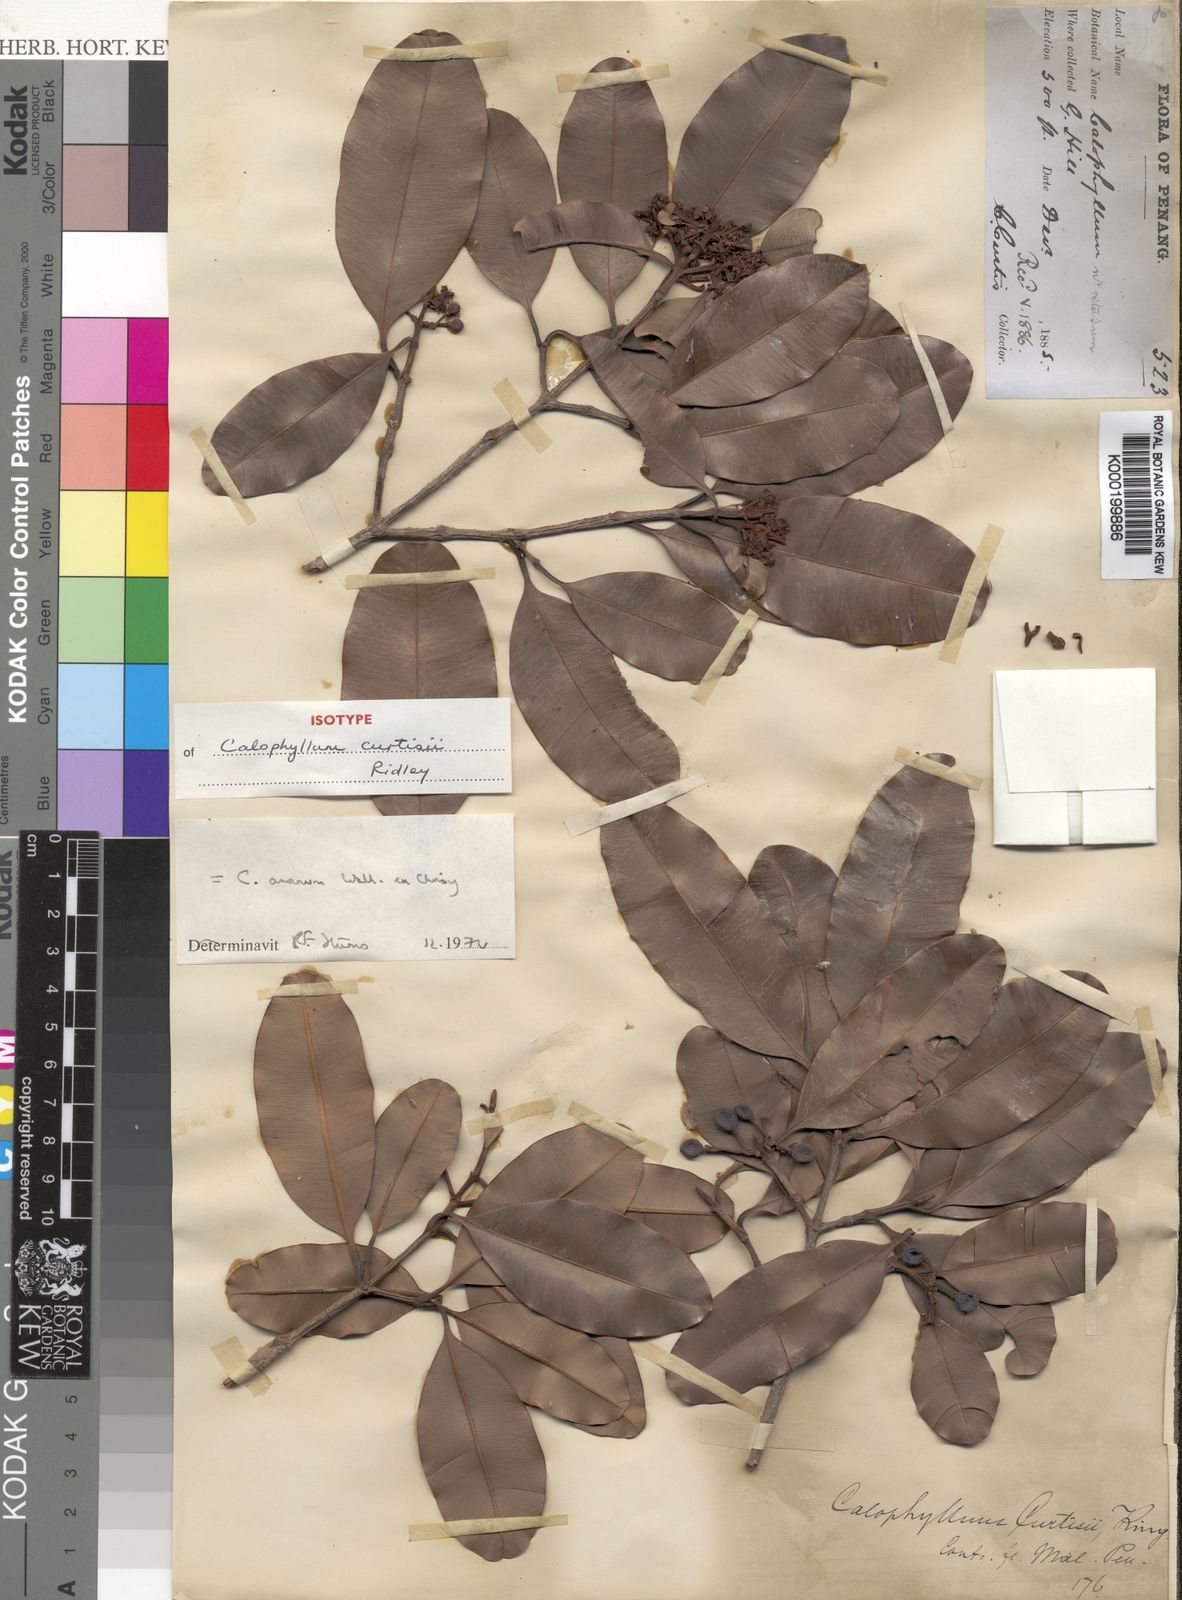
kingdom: Plantae
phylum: Tracheophyta
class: Magnoliopsida
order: Malpighiales
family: Calophyllaceae
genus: Calophyllum
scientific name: Calophyllum calaba
